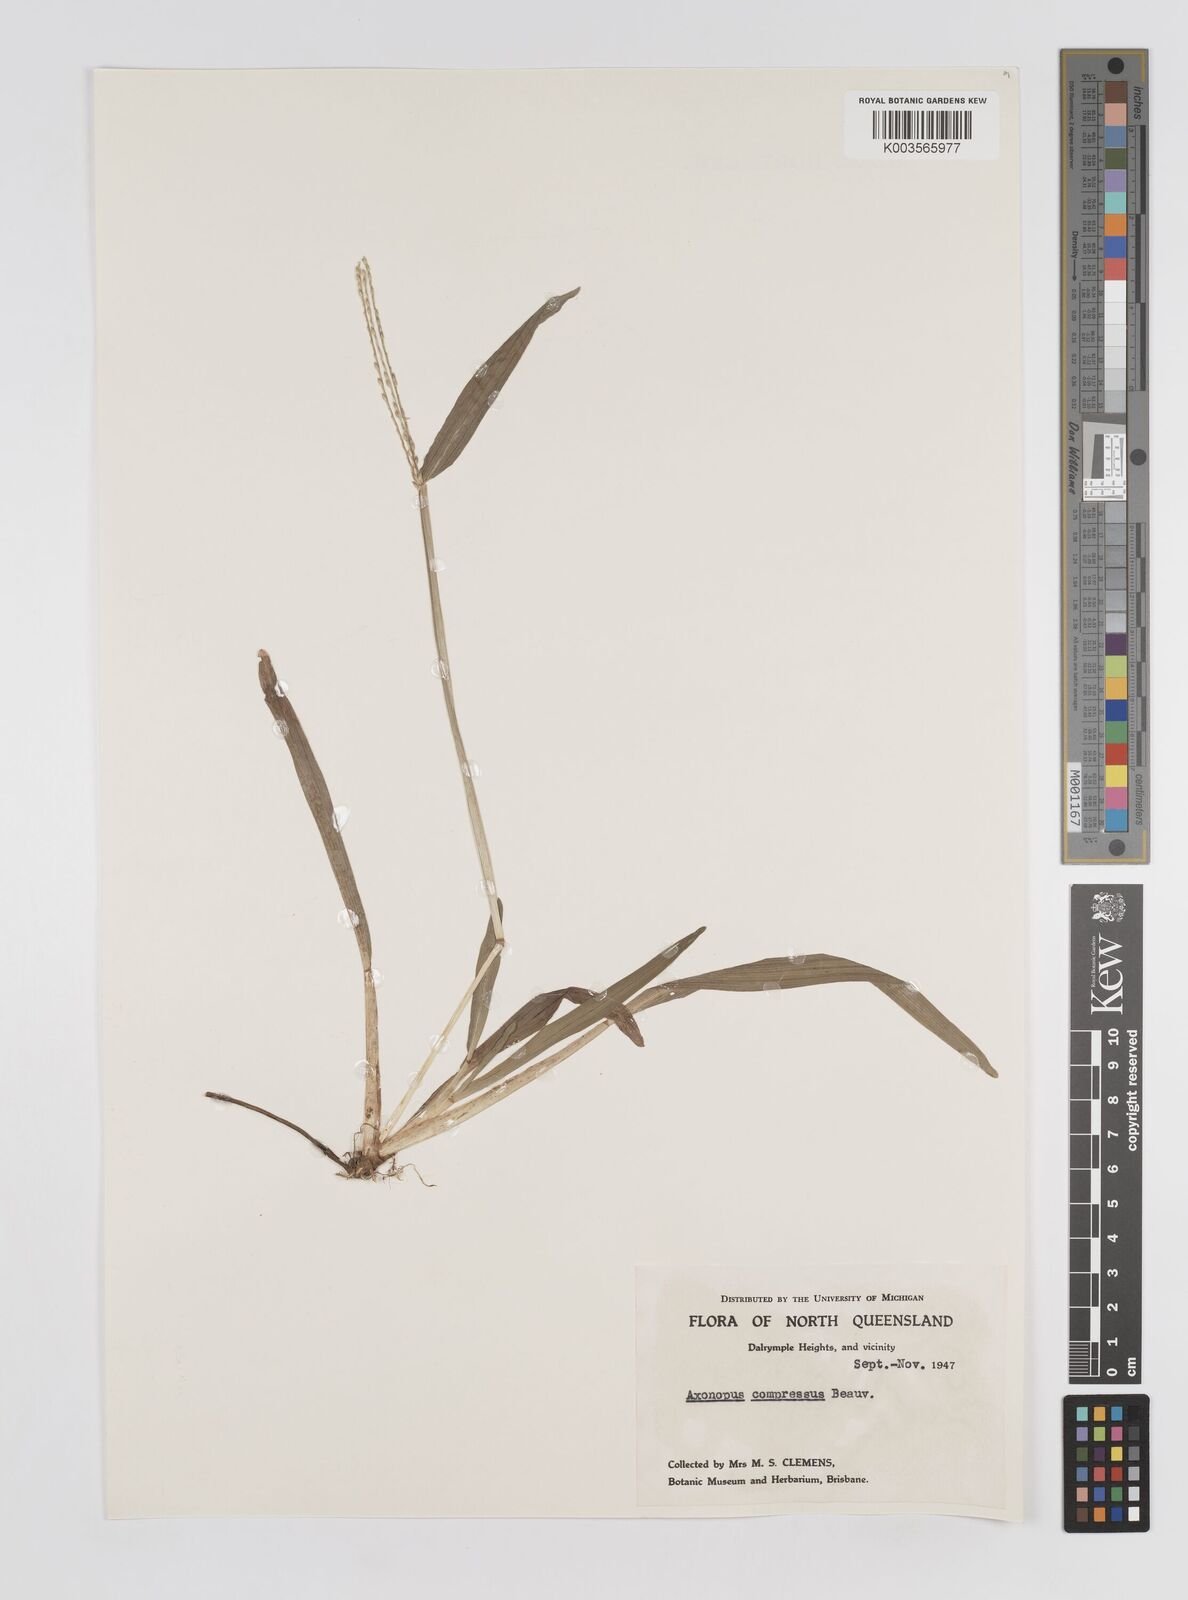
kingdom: Plantae
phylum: Tracheophyta
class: Liliopsida
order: Poales
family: Poaceae
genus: Axonopus
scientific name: Axonopus compressus
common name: American carpet grass
